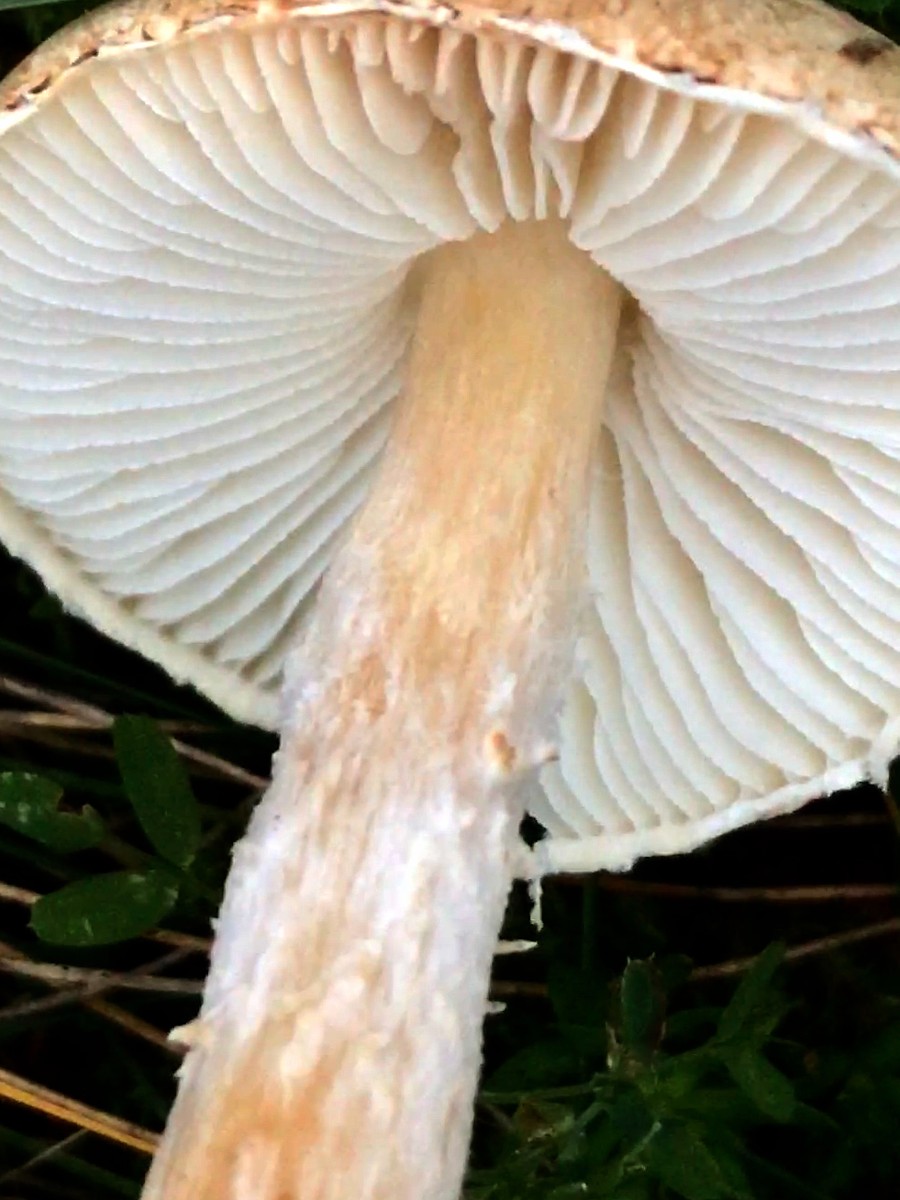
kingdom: Fungi
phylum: Basidiomycota
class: Agaricomycetes
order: Agaricales
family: Agaricaceae
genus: Lepiota
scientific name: Lepiota erminea
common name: hvid parasolhat
